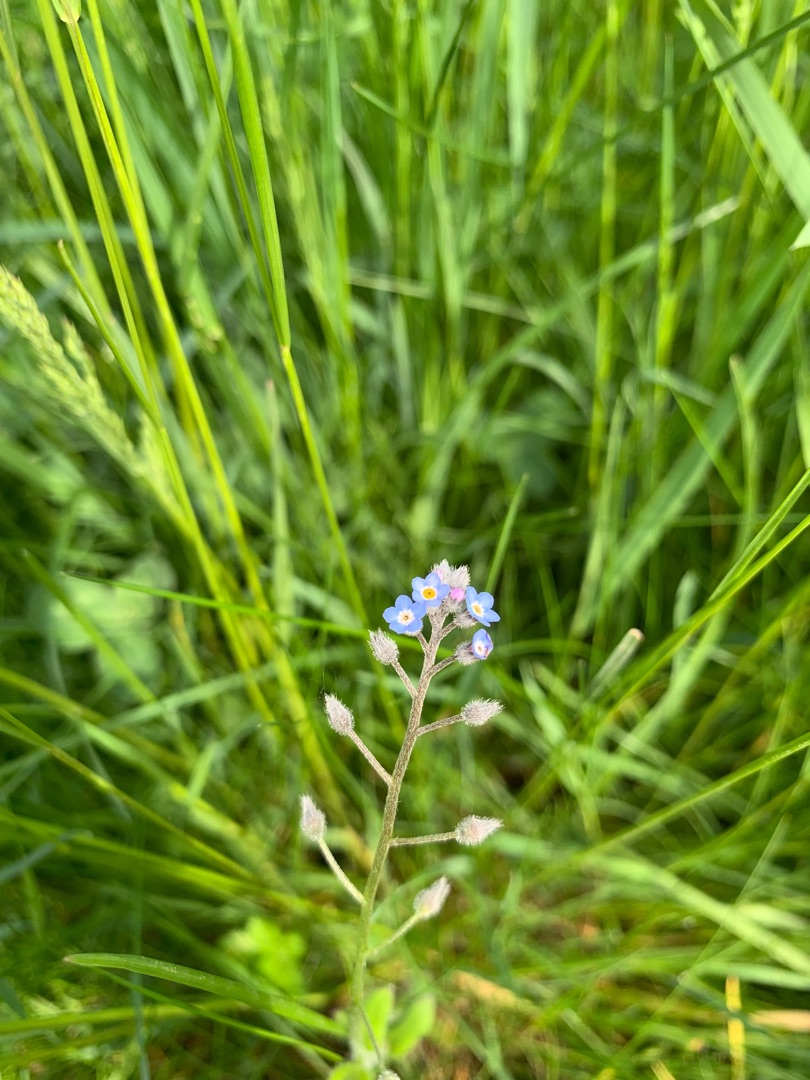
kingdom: Plantae
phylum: Tracheophyta
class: Magnoliopsida
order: Boraginales
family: Boraginaceae
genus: Myosotis
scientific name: Myosotis arvensis
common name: Mark-forglemmigej
